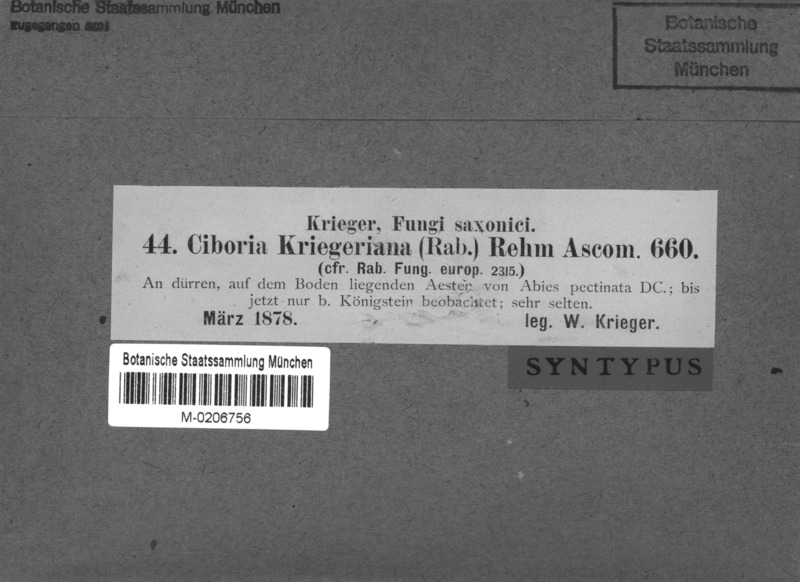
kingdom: Fungi
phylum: Ascomycota
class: Leotiomycetes
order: Helotiales
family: Rutstroemiaceae
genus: Rutstroemia
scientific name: Rutstroemia elatina
